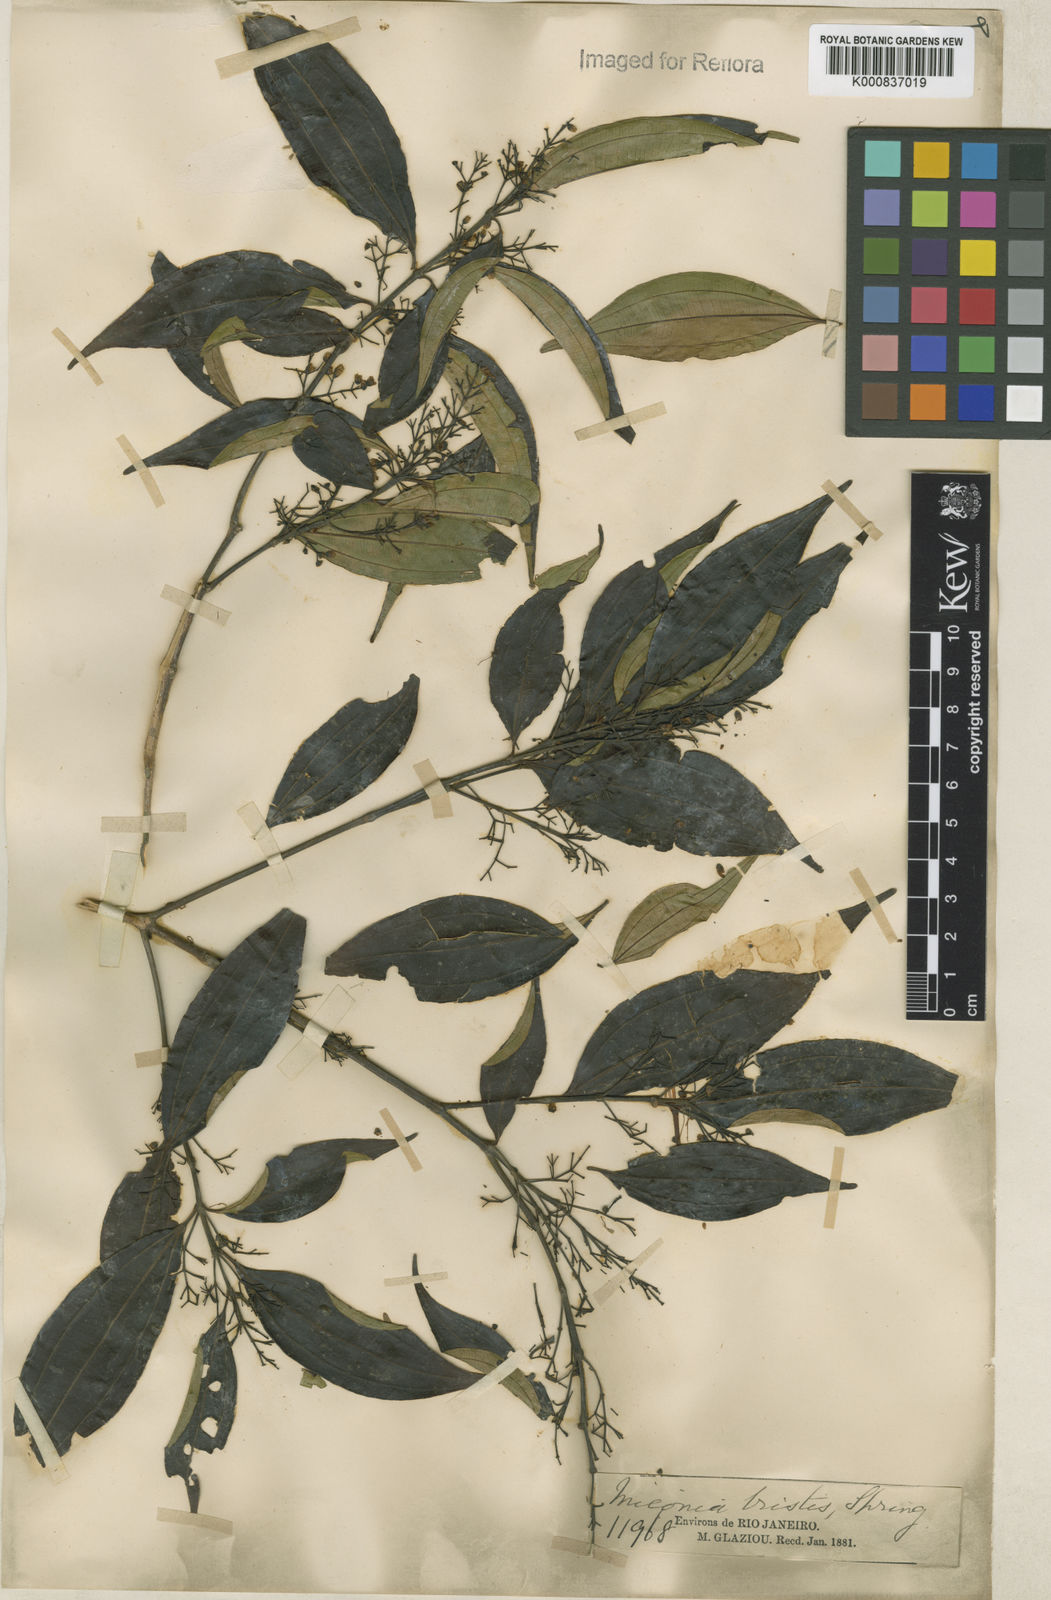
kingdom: Plantae
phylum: Tracheophyta
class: Magnoliopsida
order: Myrtales
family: Melastomataceae
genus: Miconia
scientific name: Miconia
